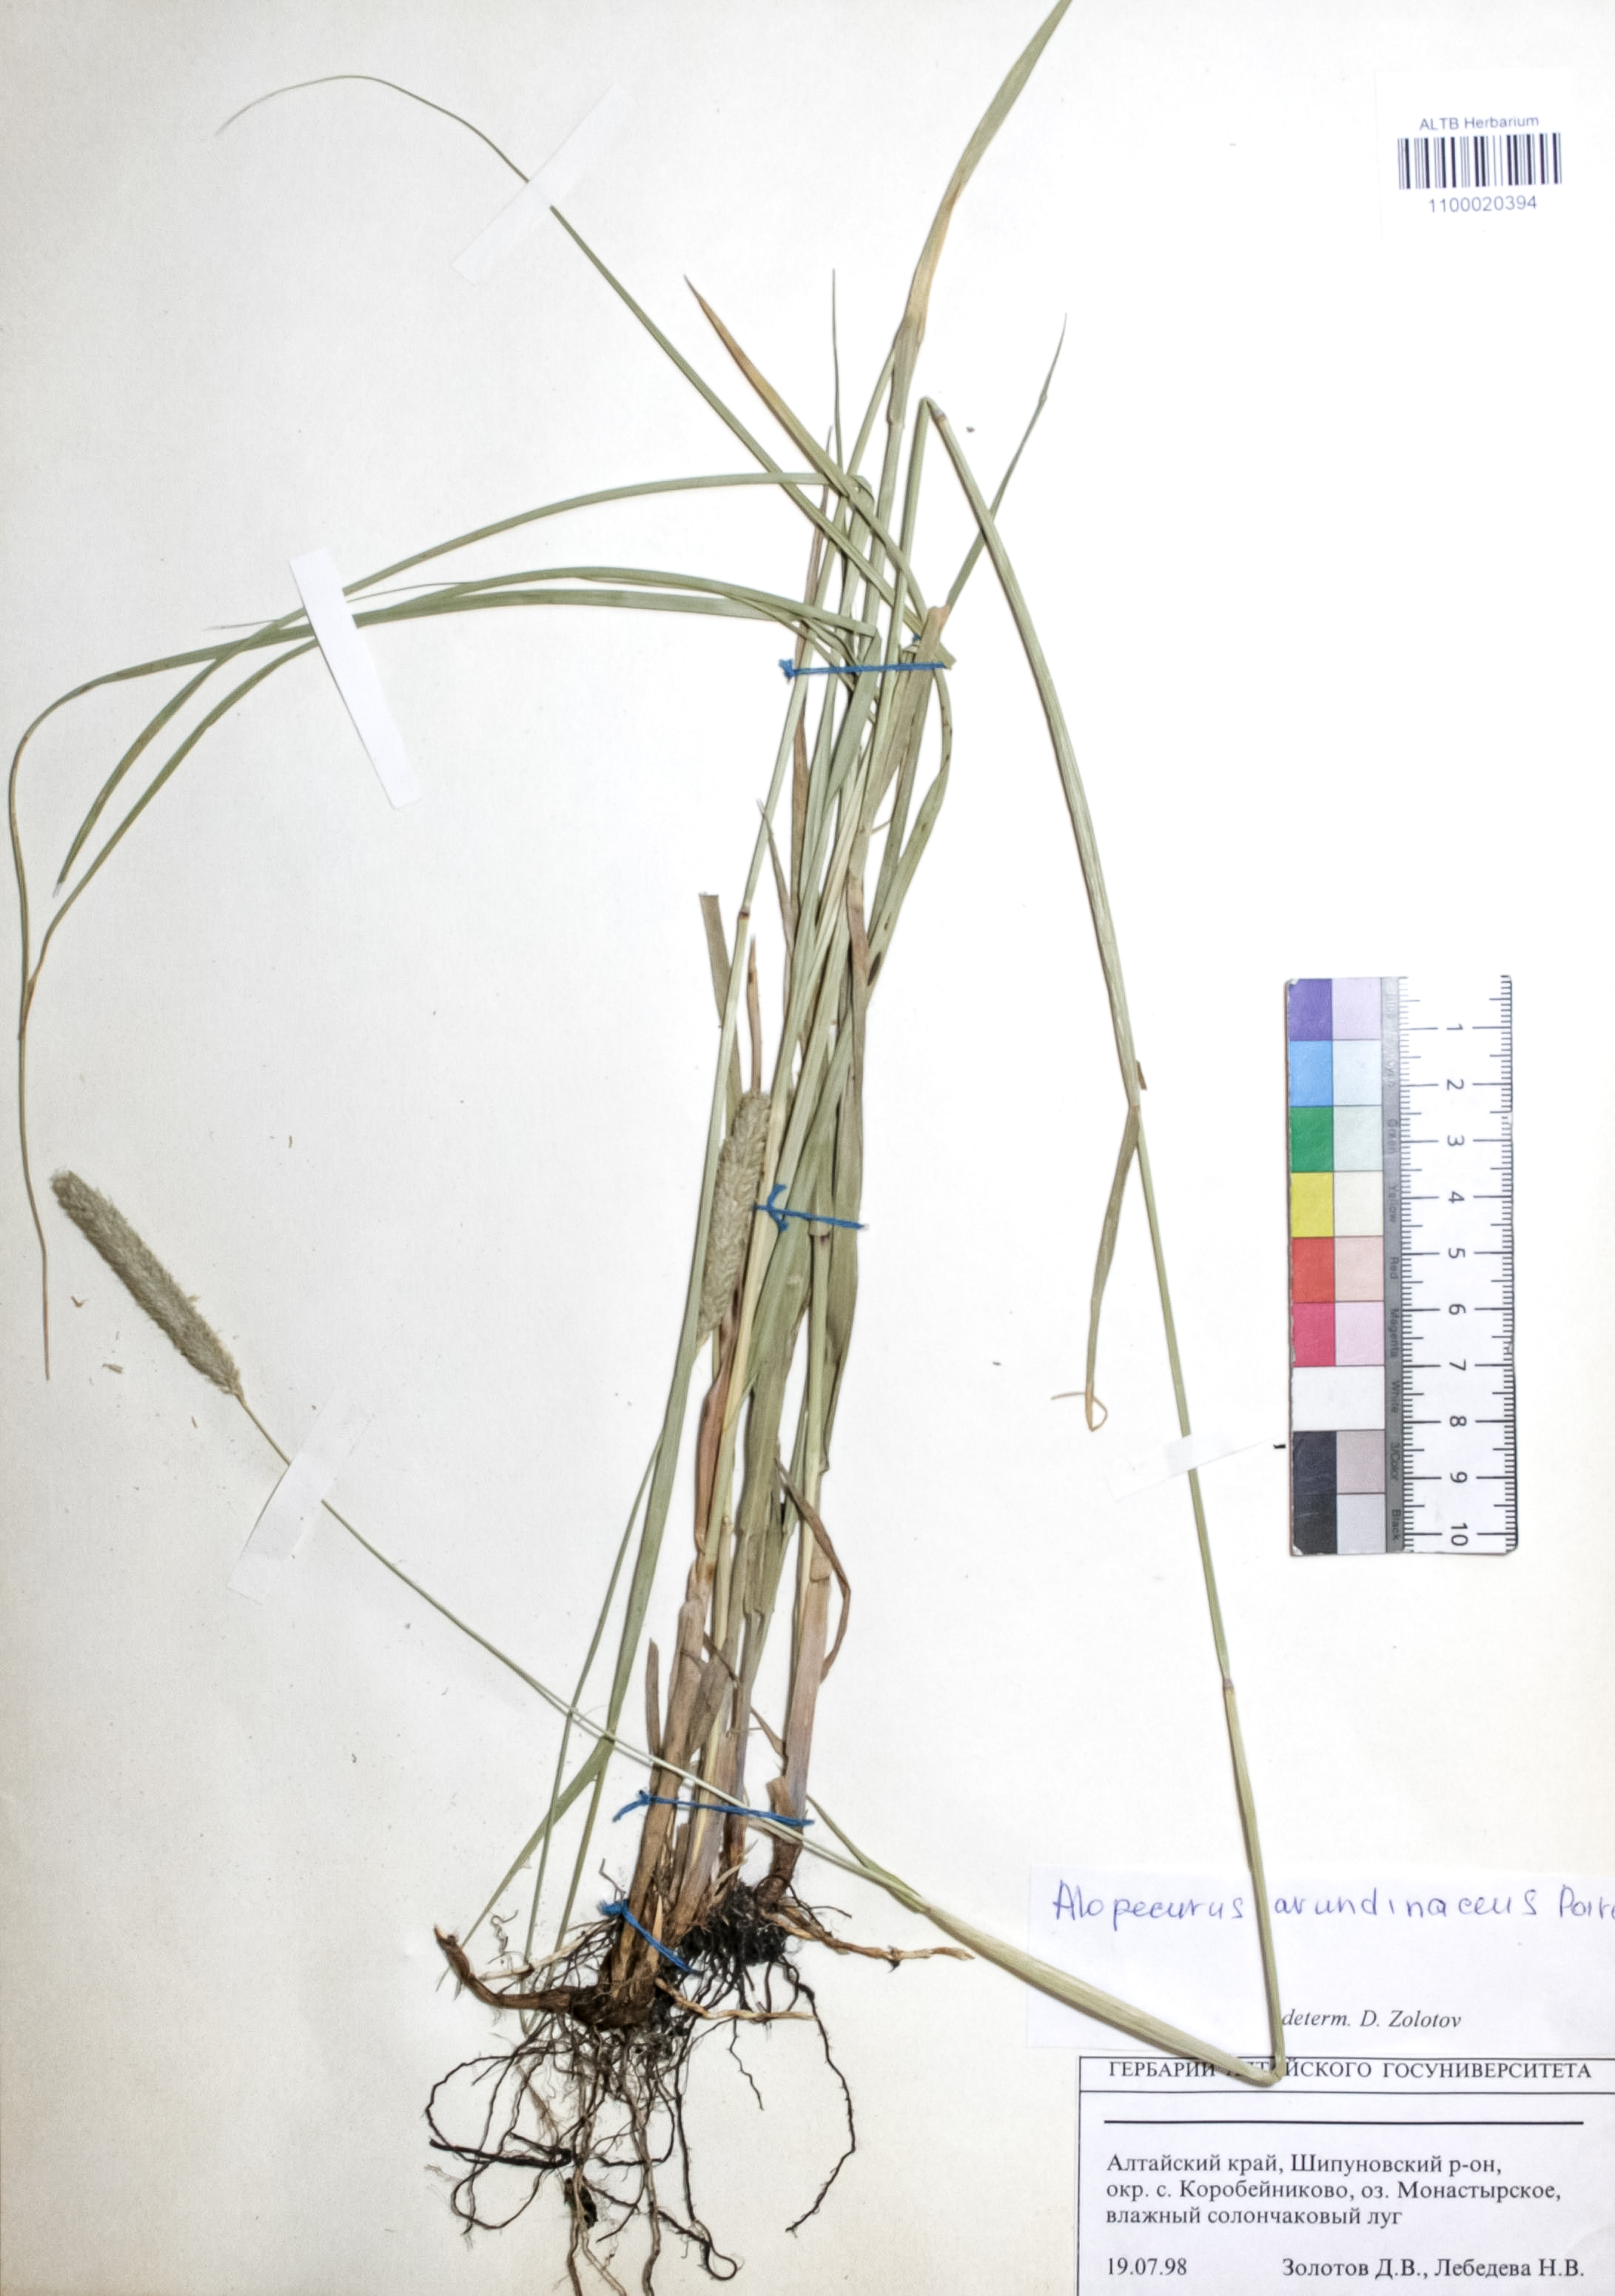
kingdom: Plantae
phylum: Tracheophyta
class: Liliopsida
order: Poales
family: Poaceae
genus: Alopecurus
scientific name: Alopecurus arundinaceus
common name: Creeping meadow foxtail
